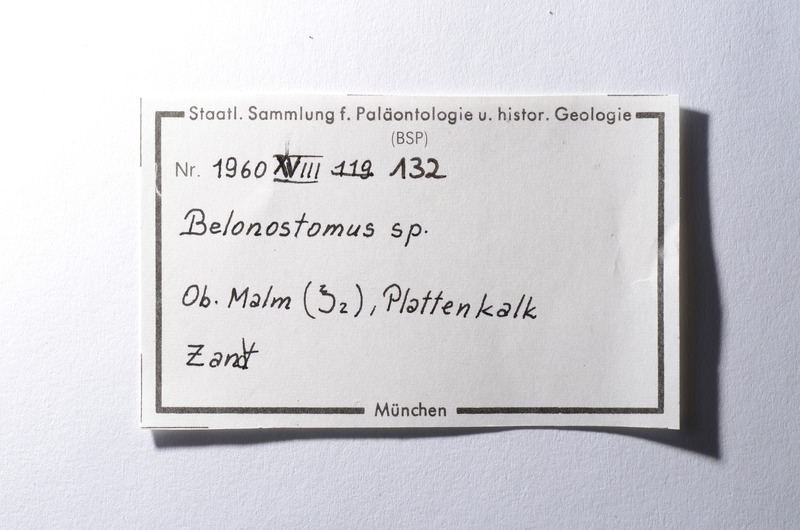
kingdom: Animalia
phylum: Chordata
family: Aspidorhynchidae
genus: Belonostomus
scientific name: Belonostomus
